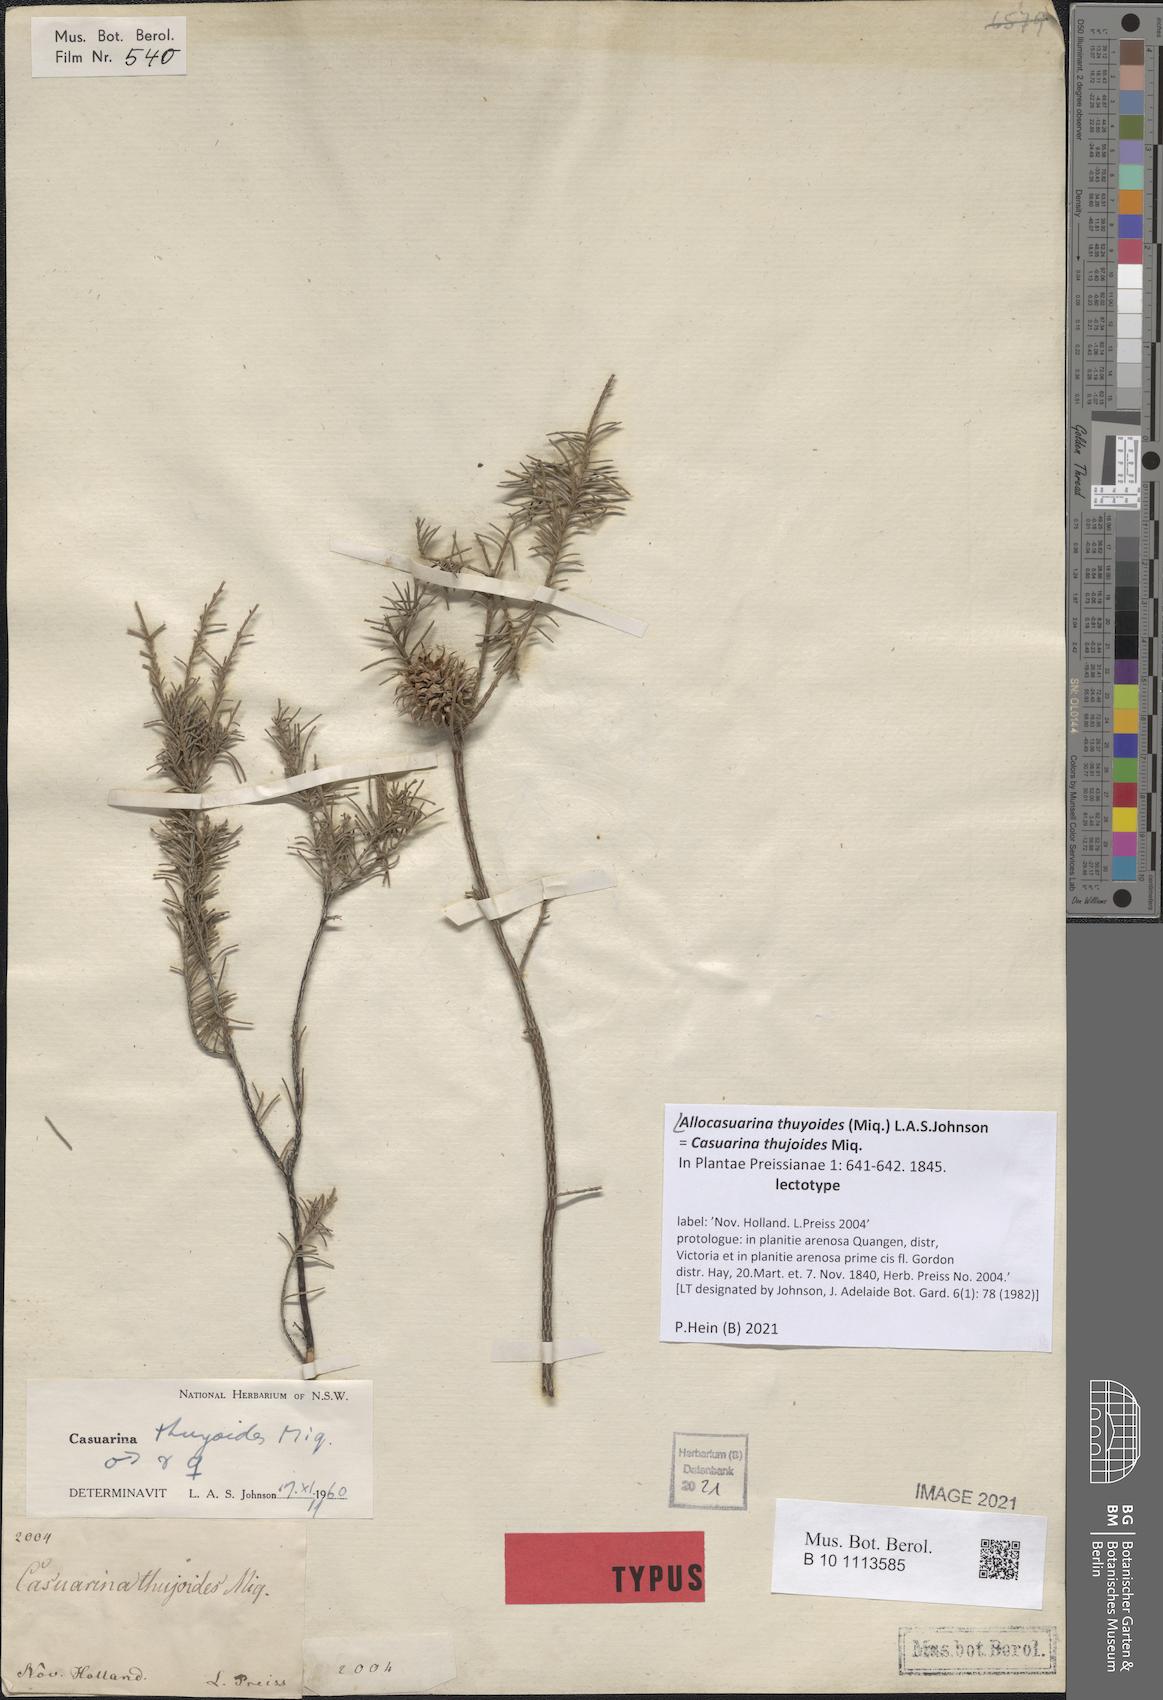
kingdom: Plantae
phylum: Tracheophyta
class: Magnoliopsida
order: Fagales
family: Casuarinaceae
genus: Allocasuarina
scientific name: Allocasuarina thuyoides
